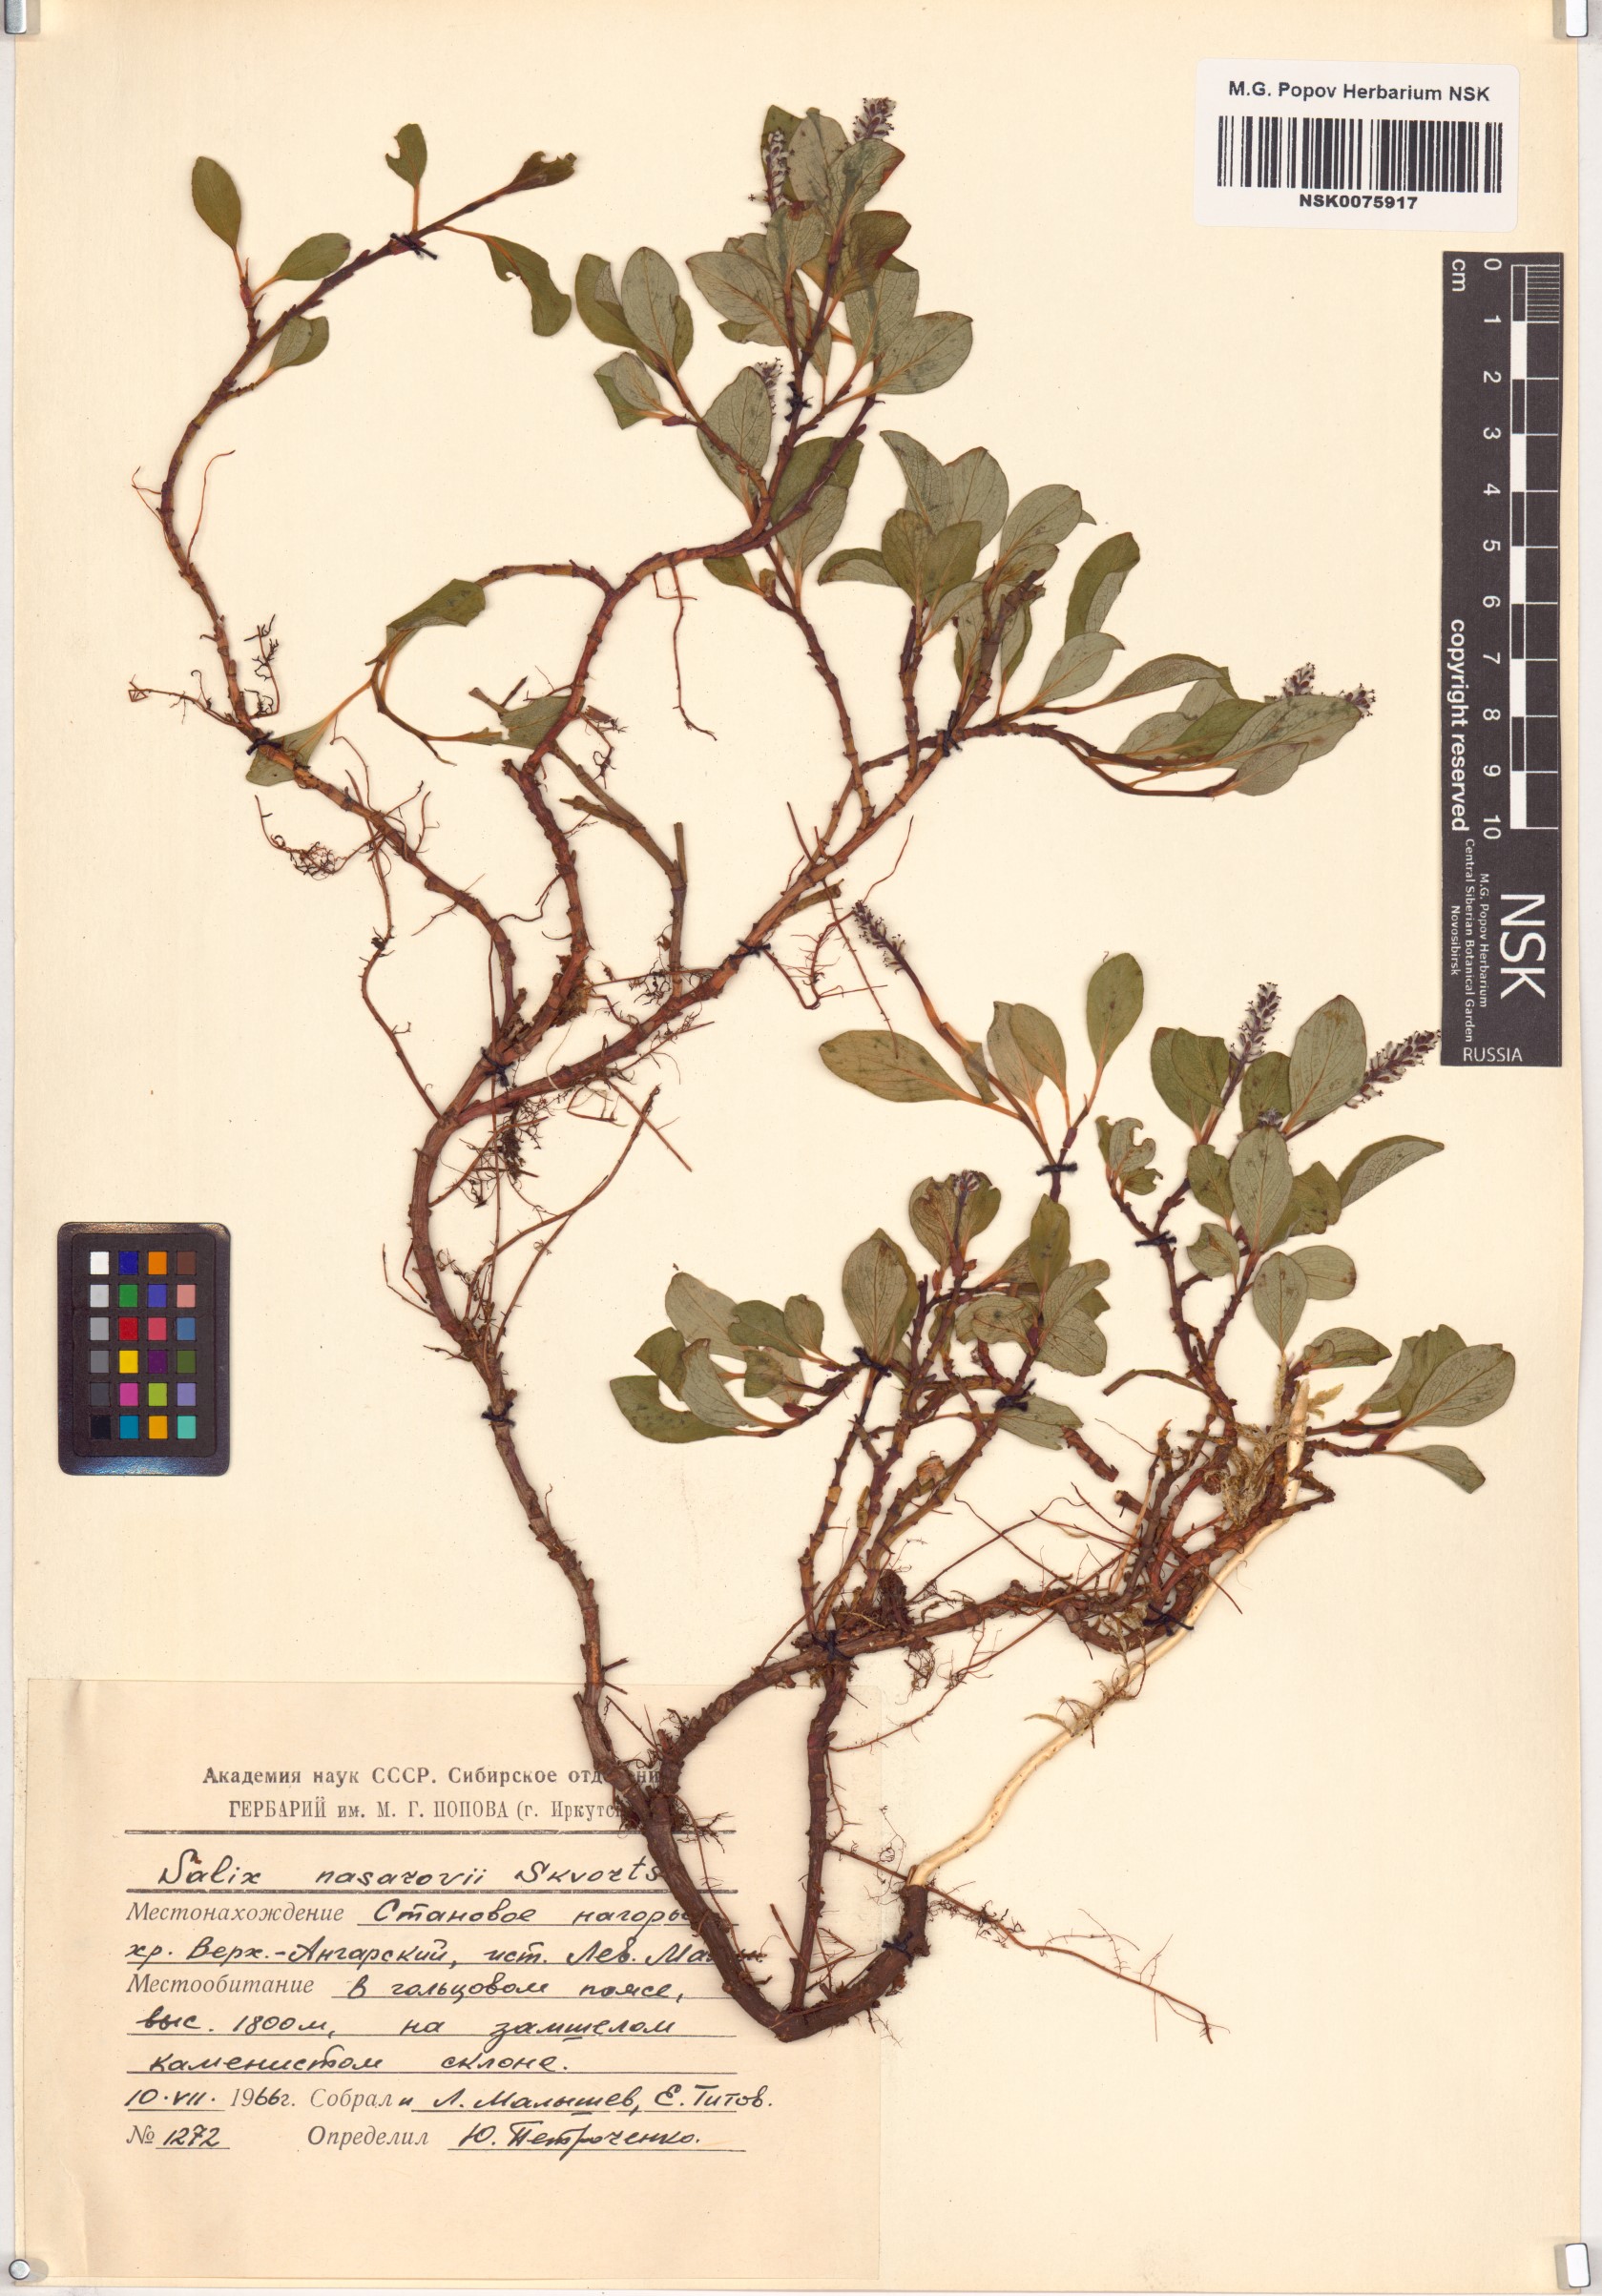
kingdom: Plantae
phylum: Tracheophyta
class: Magnoliopsida
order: Malpighiales
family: Salicaceae
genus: Salix
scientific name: Salix nasarovii
